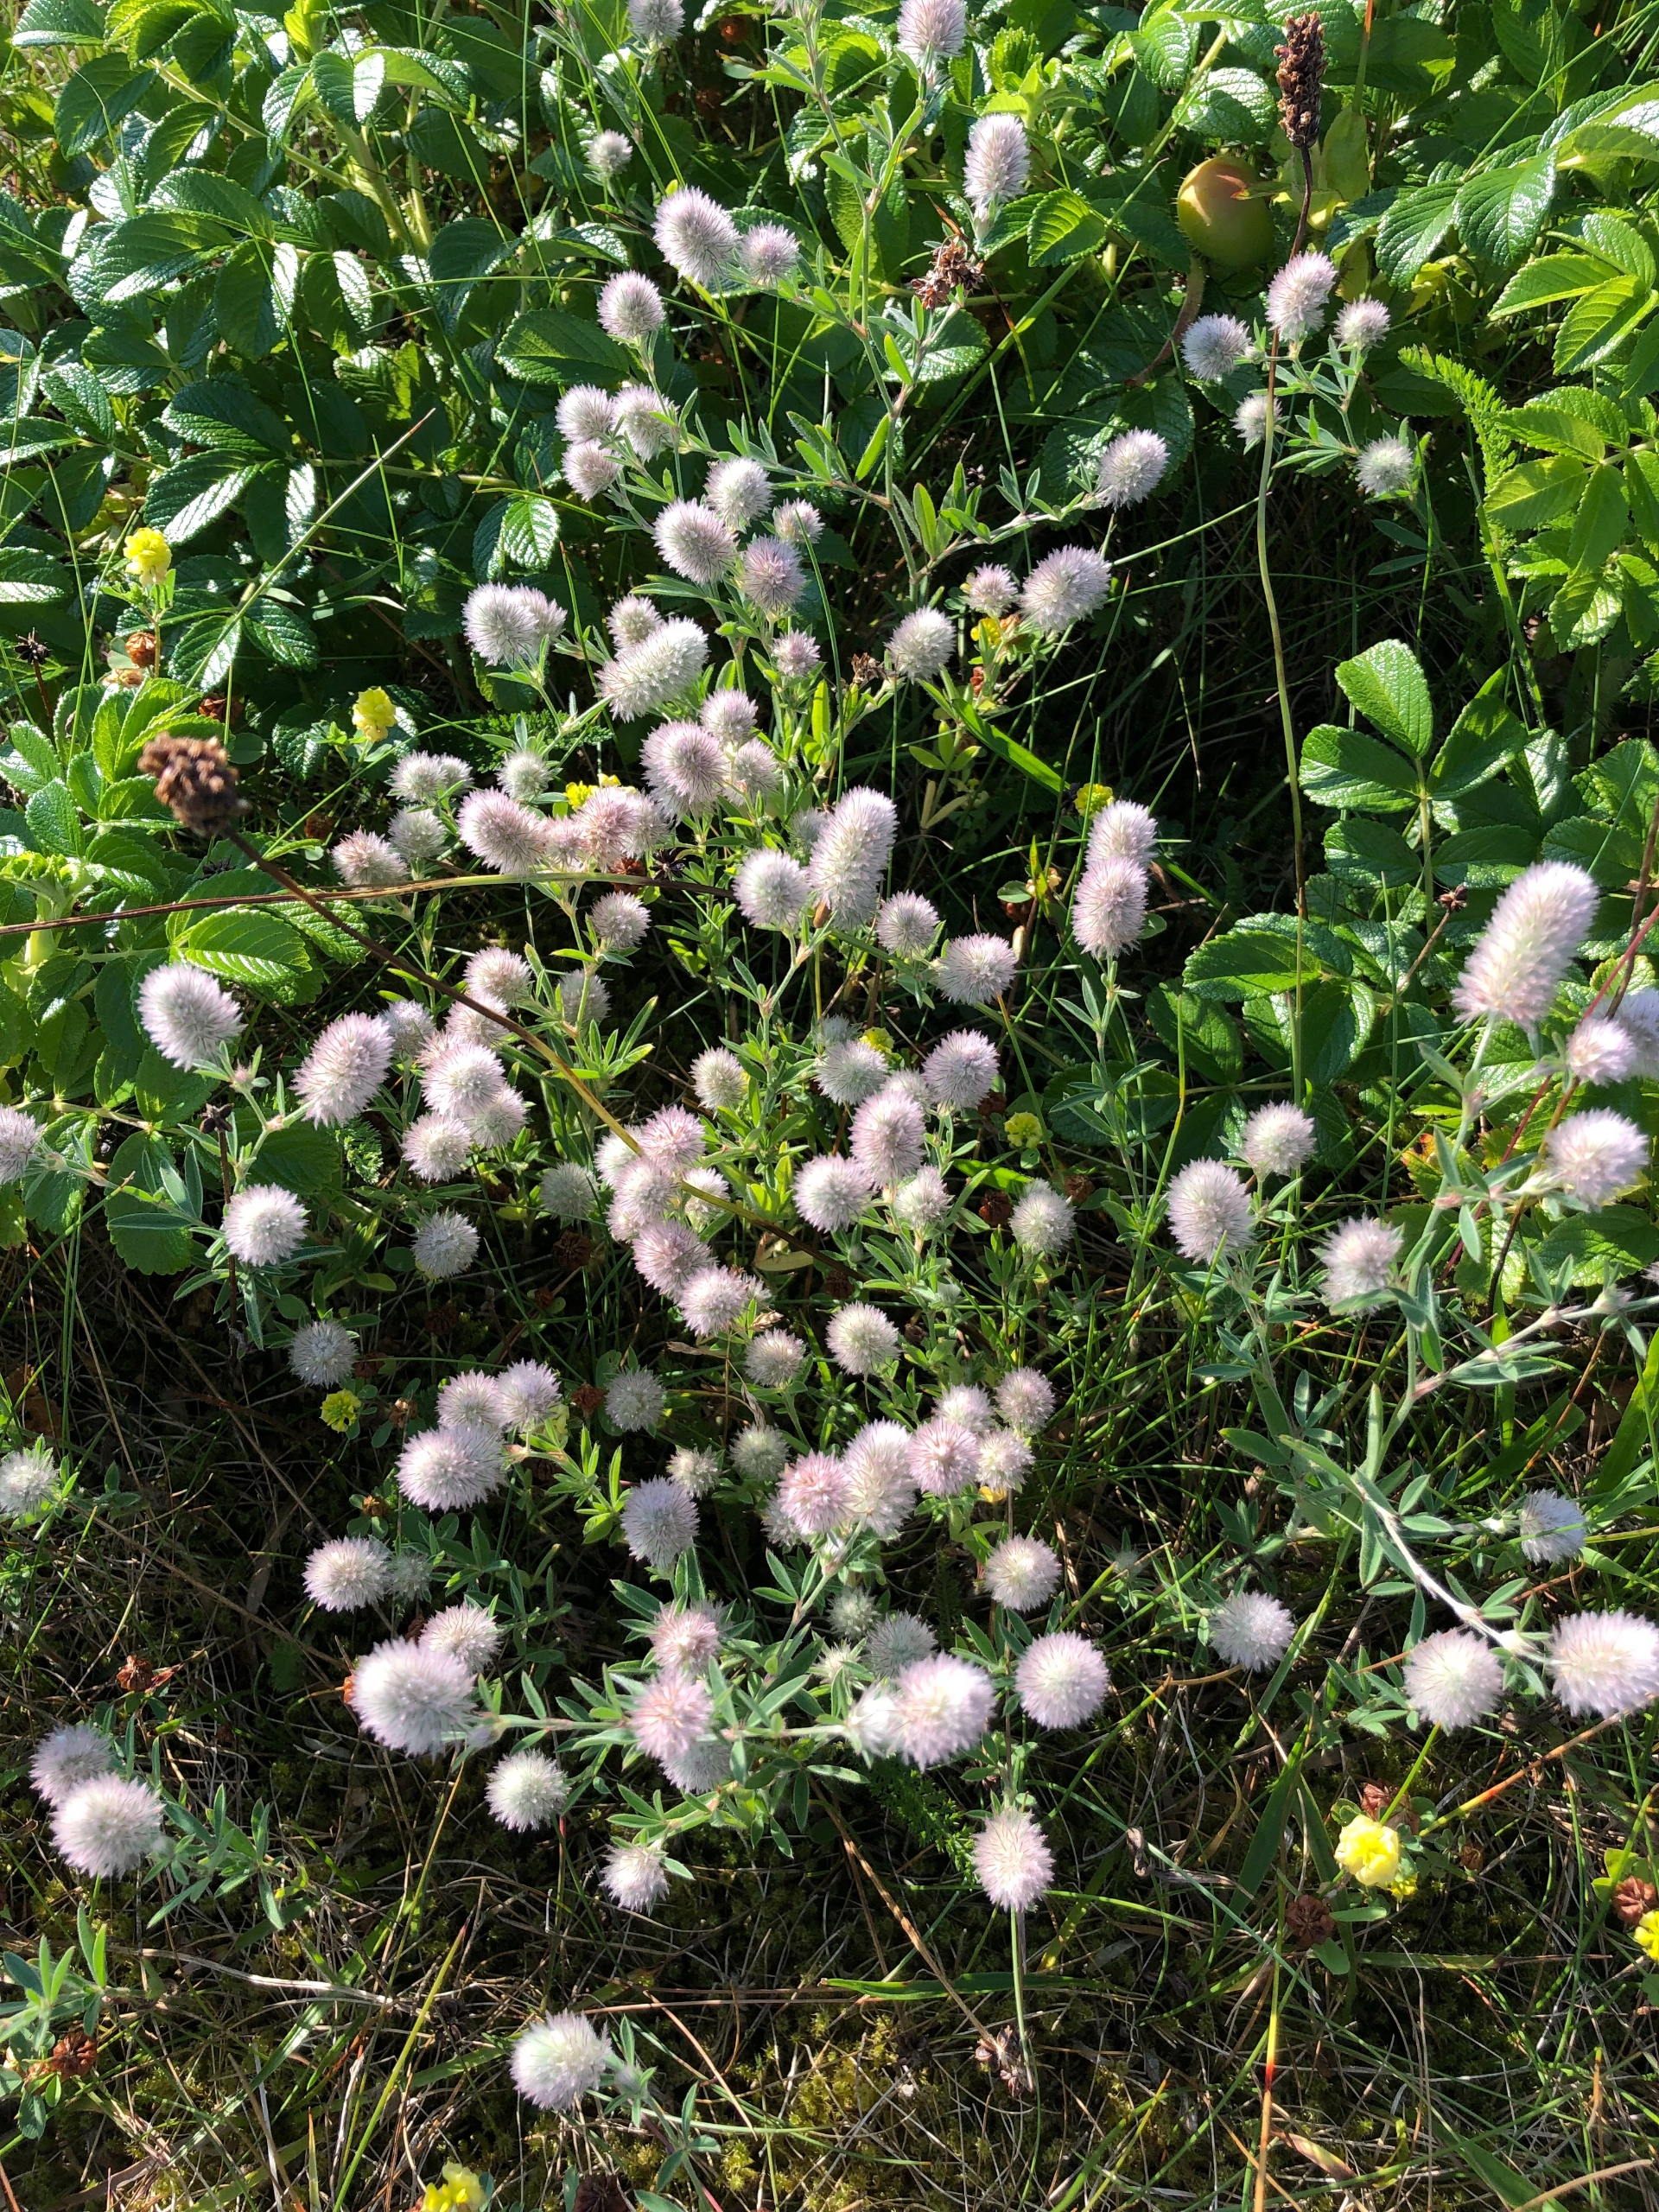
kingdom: Plantae
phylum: Tracheophyta
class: Magnoliopsida
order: Fabales
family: Fabaceae
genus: Trifolium
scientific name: Trifolium arvense
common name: Hare-kløver
